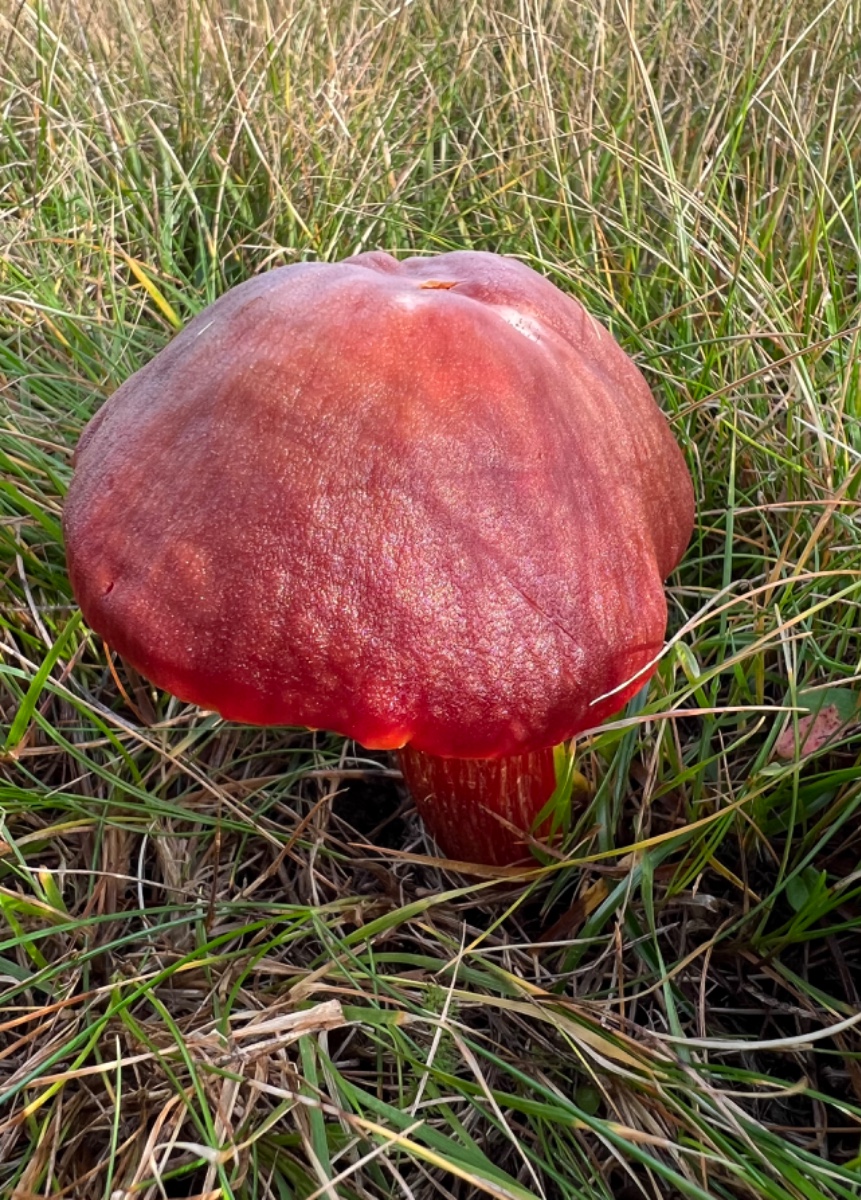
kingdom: Fungi
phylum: Basidiomycota
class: Agaricomycetes
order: Agaricales
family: Hygrophoraceae
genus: Hygrocybe
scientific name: Hygrocybe punicea
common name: skarlagen-vokshat
